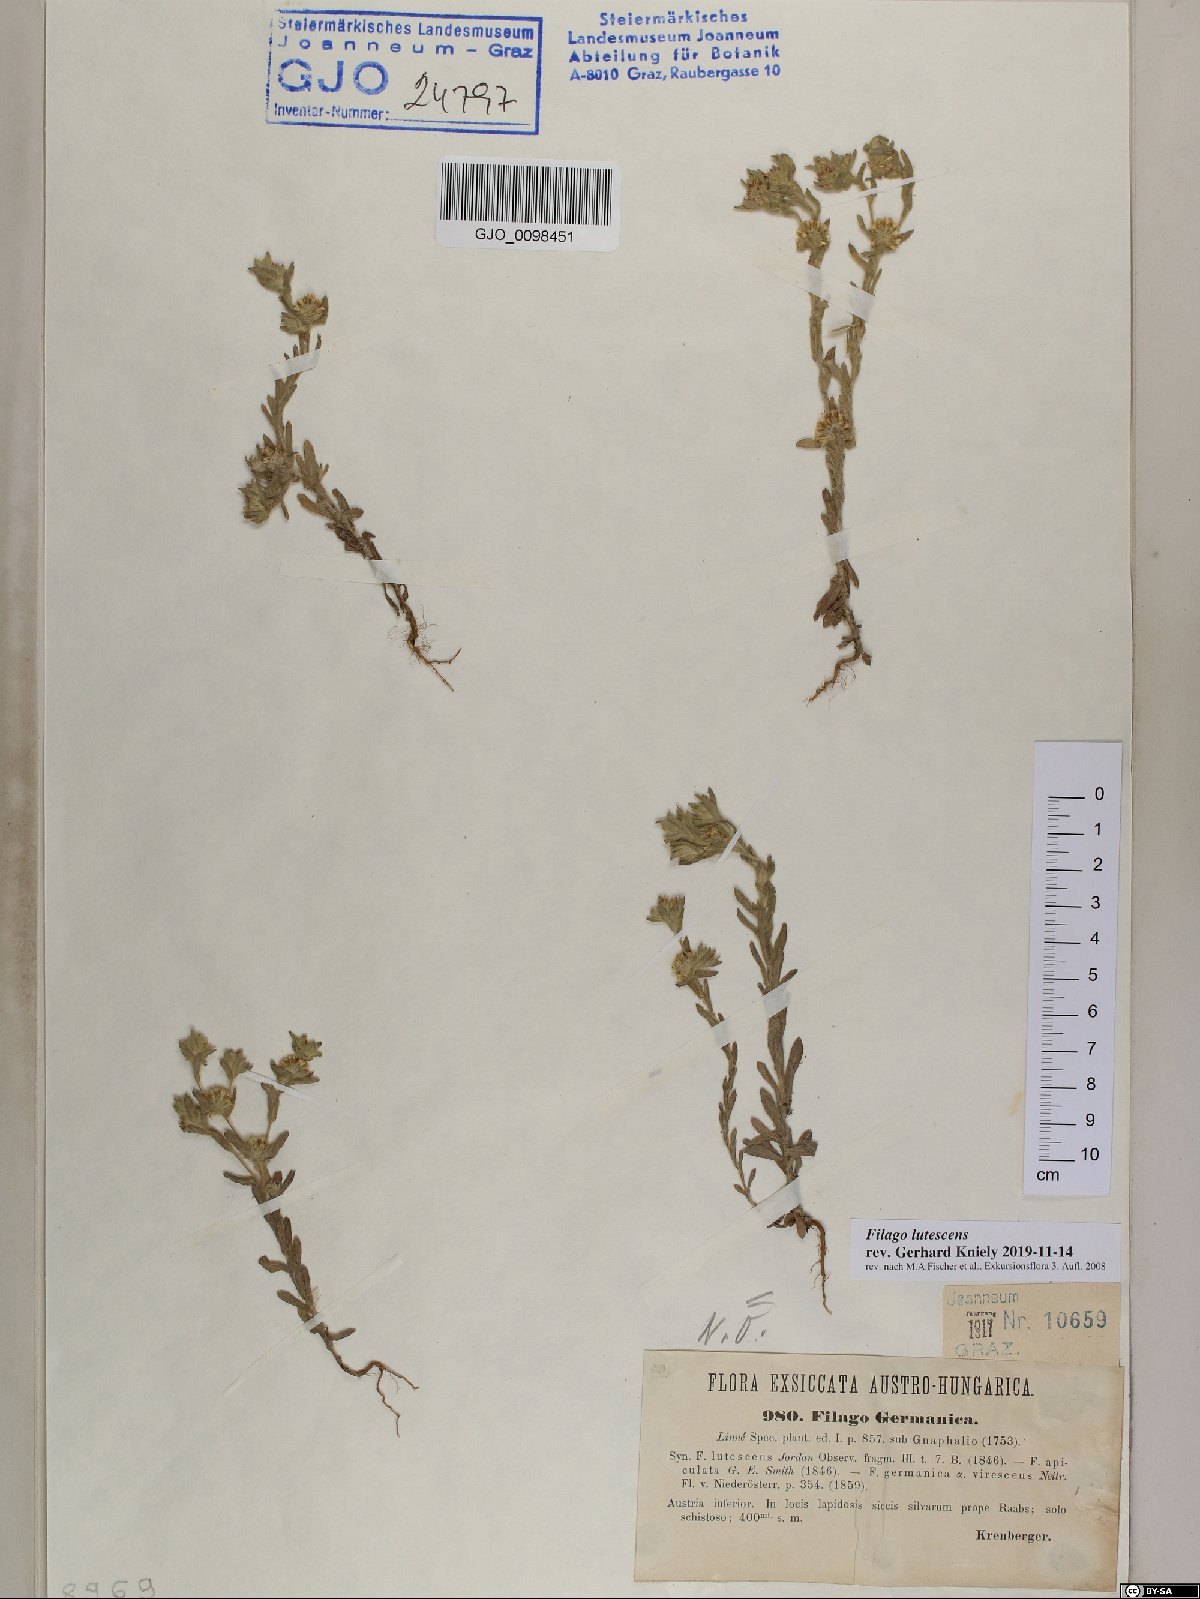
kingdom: Plantae
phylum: Tracheophyta
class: Magnoliopsida
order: Asterales
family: Asteraceae
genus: Filago
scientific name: Filago lutescens
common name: Red-tipped cudweed
